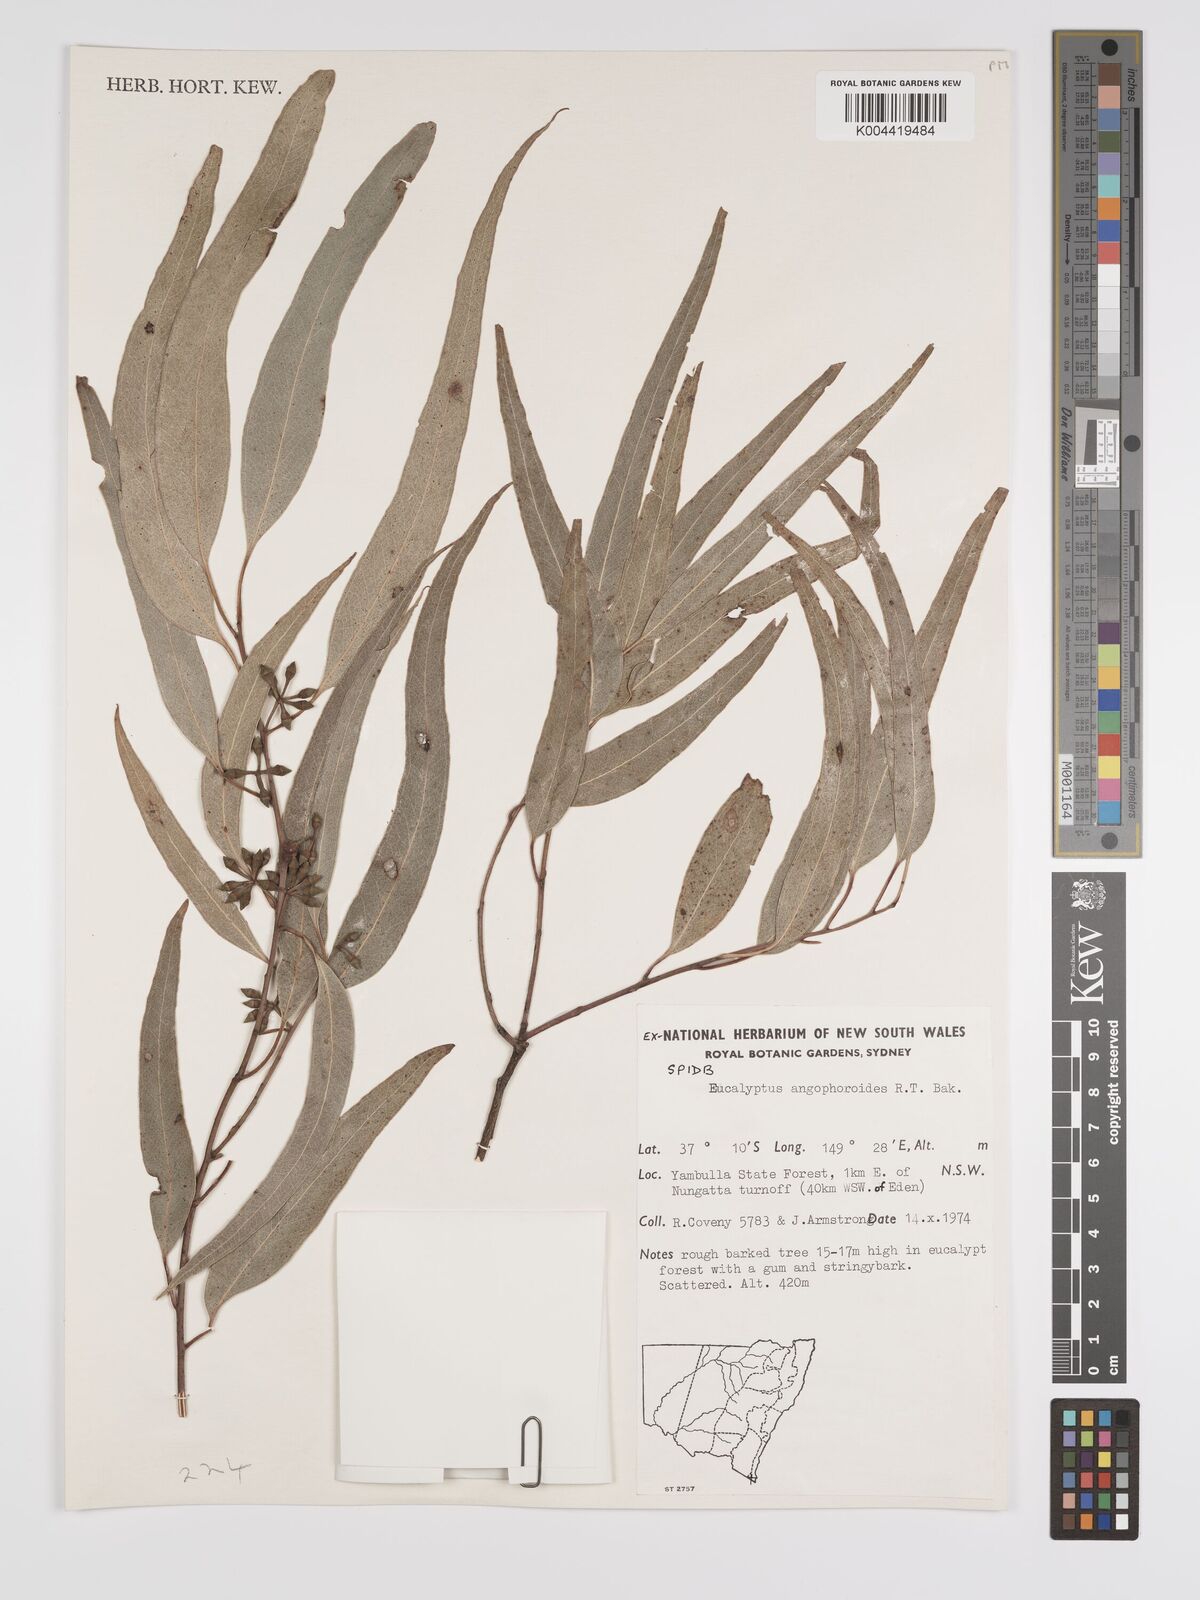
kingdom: Plantae
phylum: Tracheophyta
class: Magnoliopsida
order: Myrtales
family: Myrtaceae
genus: Eucalyptus
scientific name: Eucalyptus angophoroides
